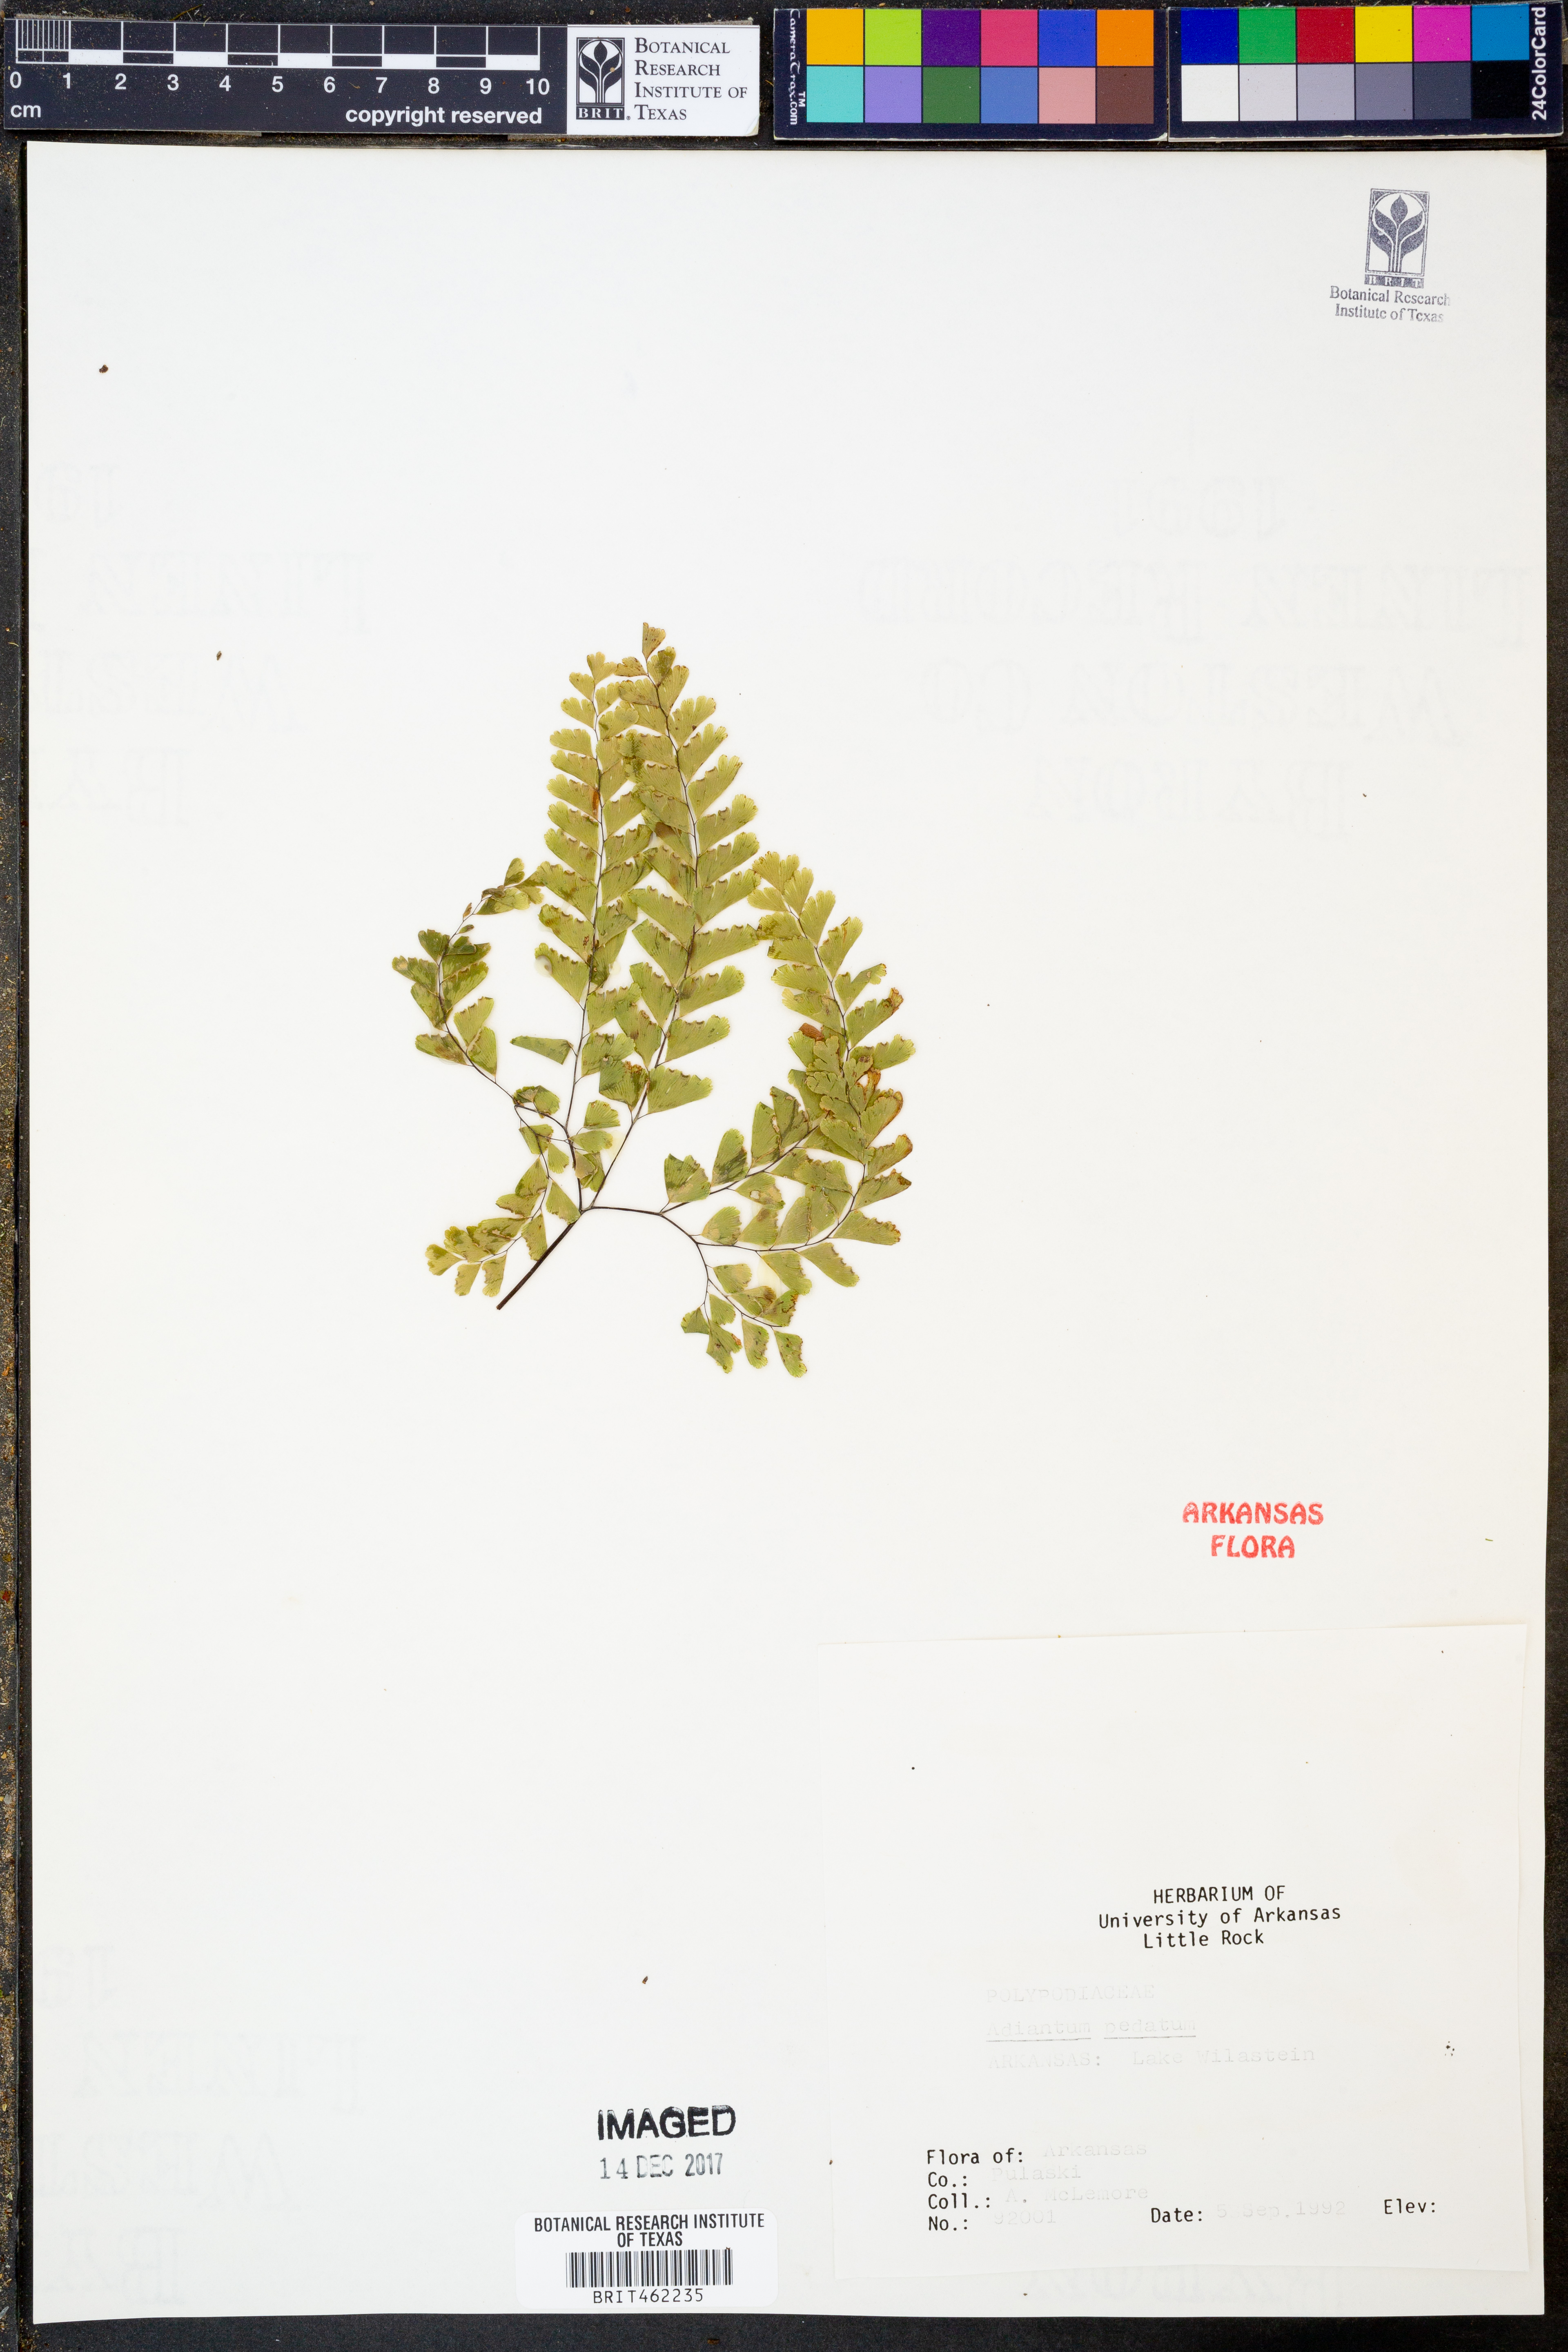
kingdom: Plantae
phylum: Tracheophyta
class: Polypodiopsida
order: Polypodiales
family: Pteridaceae
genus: Adiantum
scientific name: Adiantum pedatum
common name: Five-finger fern
